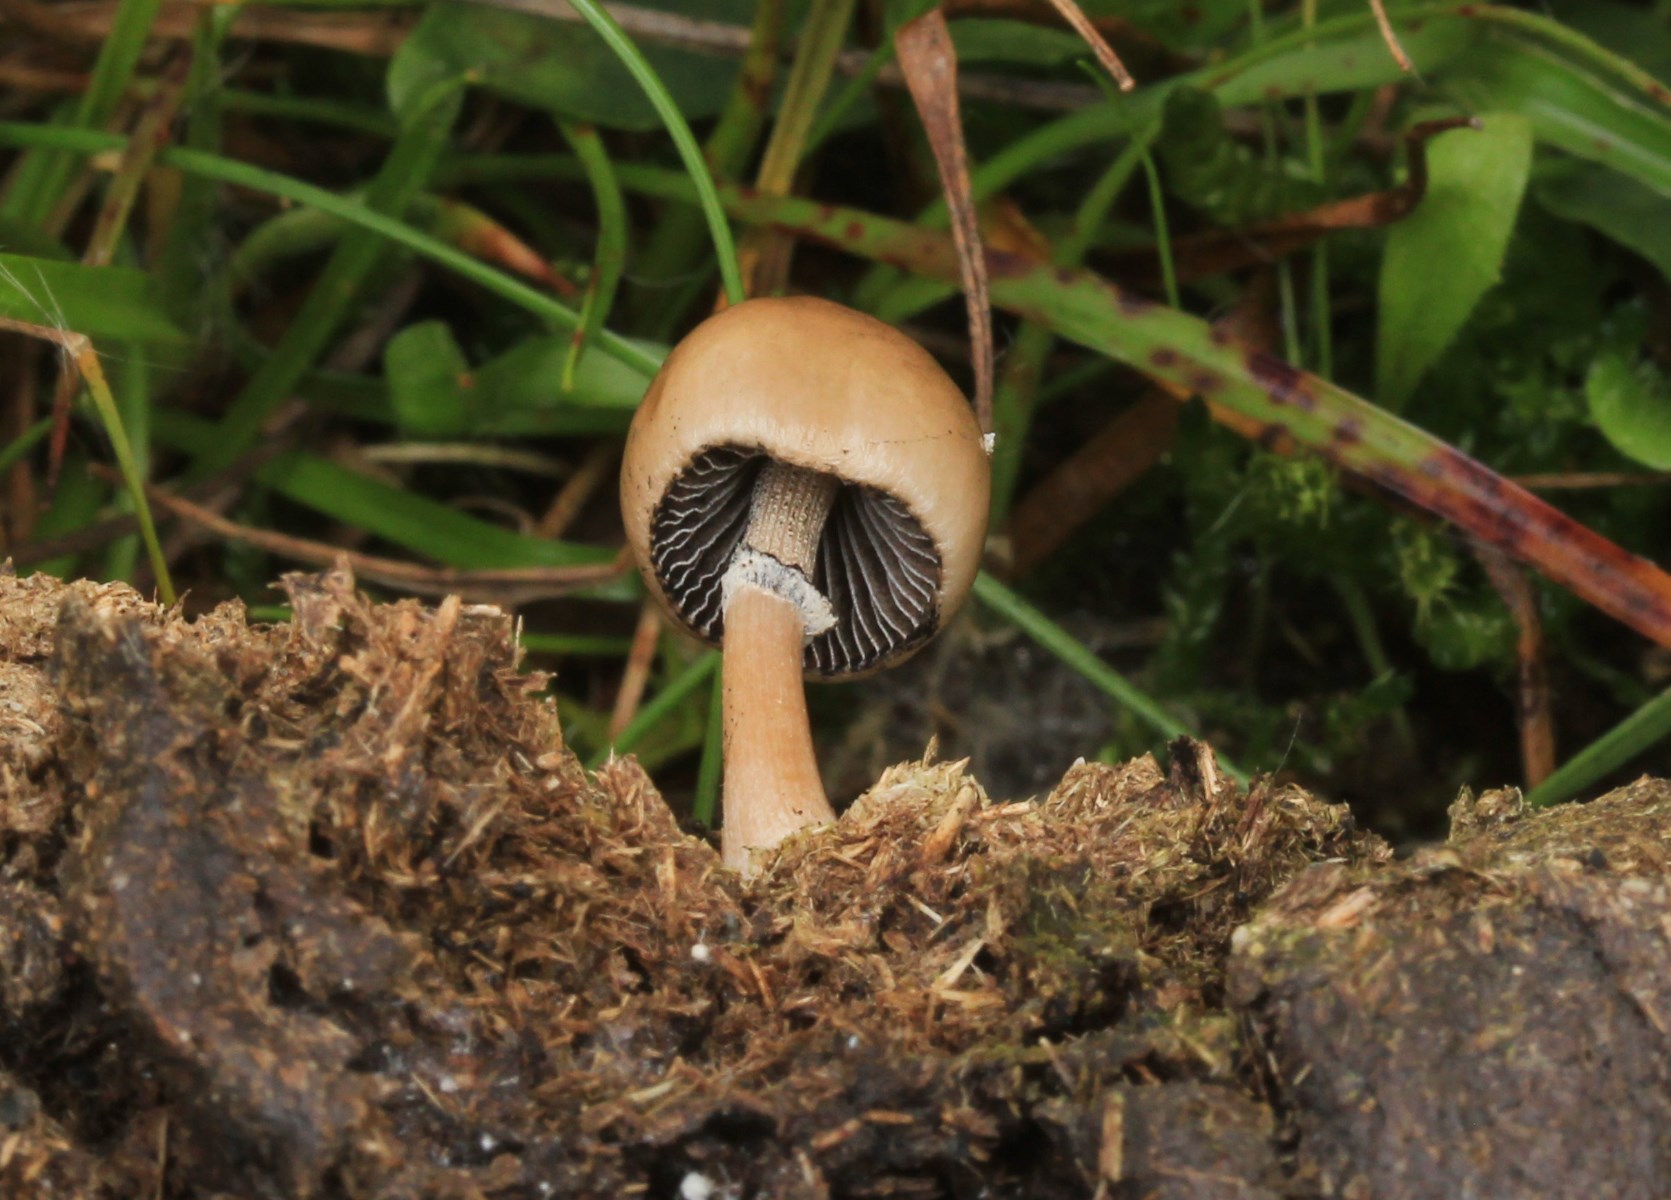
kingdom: Fungi
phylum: Basidiomycota
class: Agaricomycetes
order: Agaricales
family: Bolbitiaceae
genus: Panaeolus
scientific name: Panaeolus semiovatus
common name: ring-glanshat
